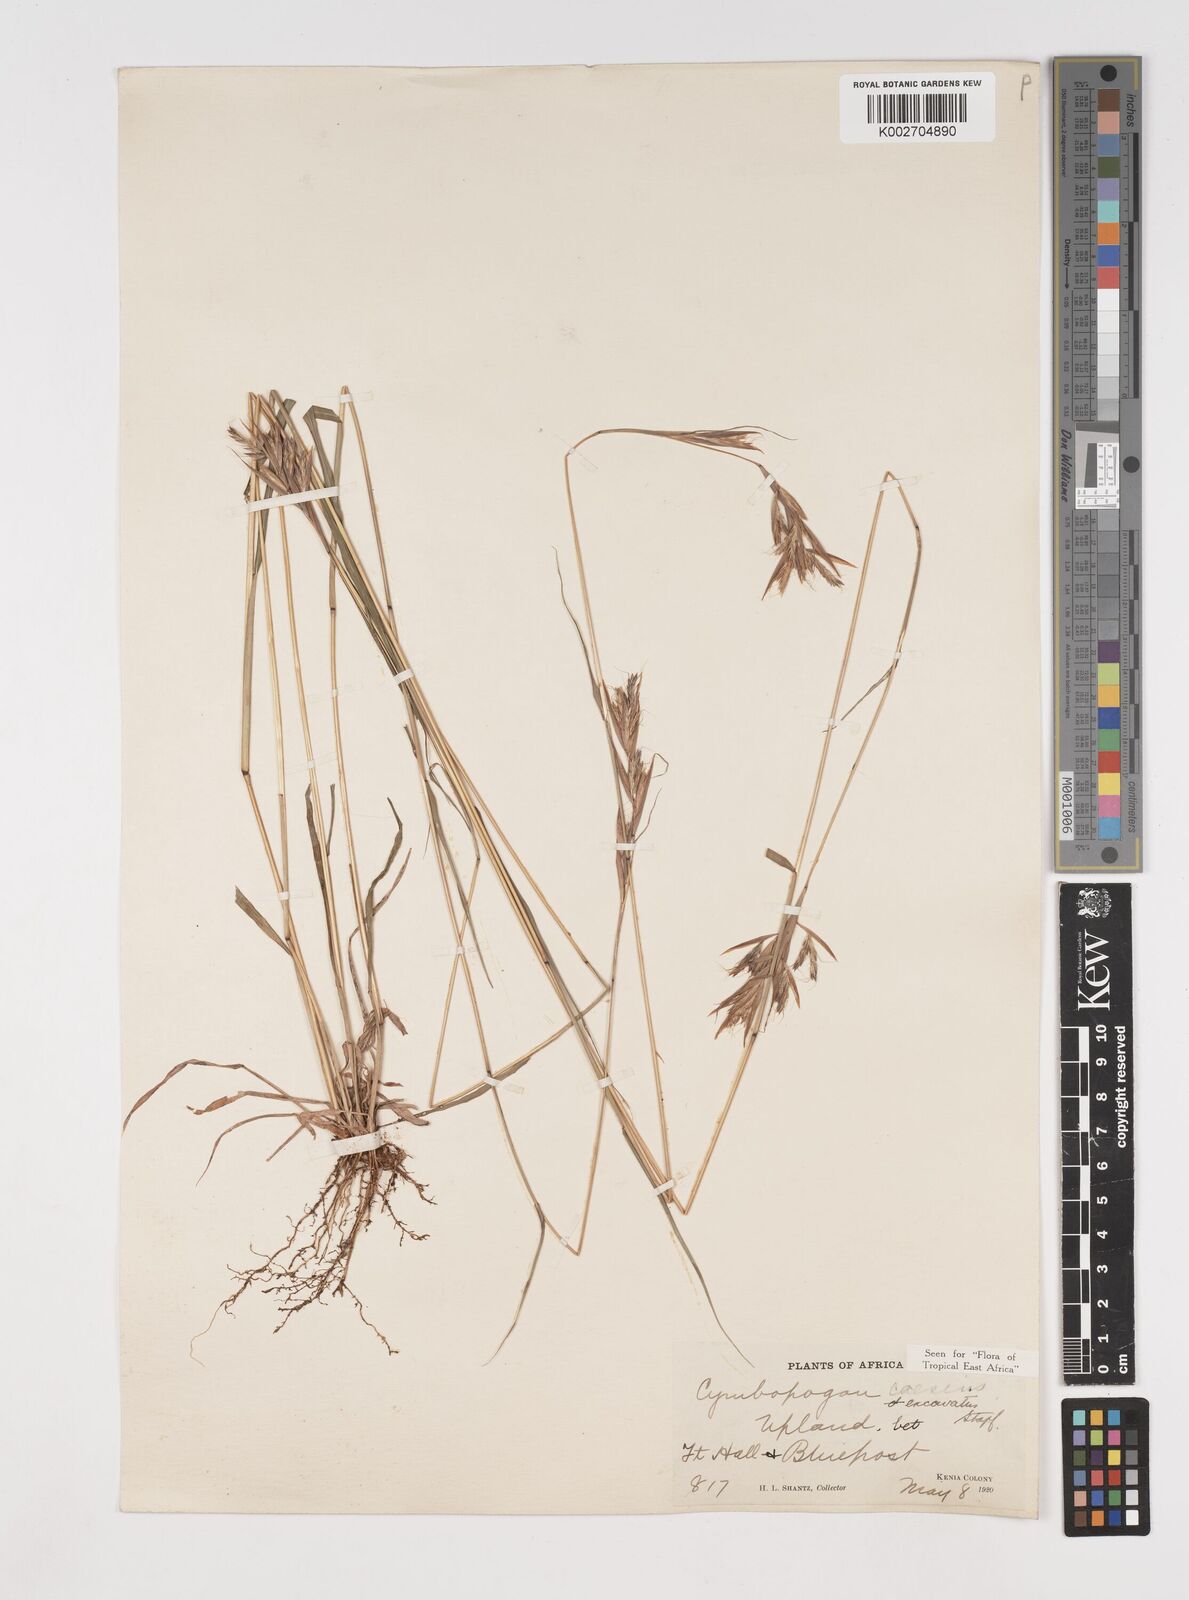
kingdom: Plantae
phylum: Tracheophyta
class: Liliopsida
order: Poales
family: Poaceae
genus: Cymbopogon
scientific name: Cymbopogon caesius
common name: Kachi grass
